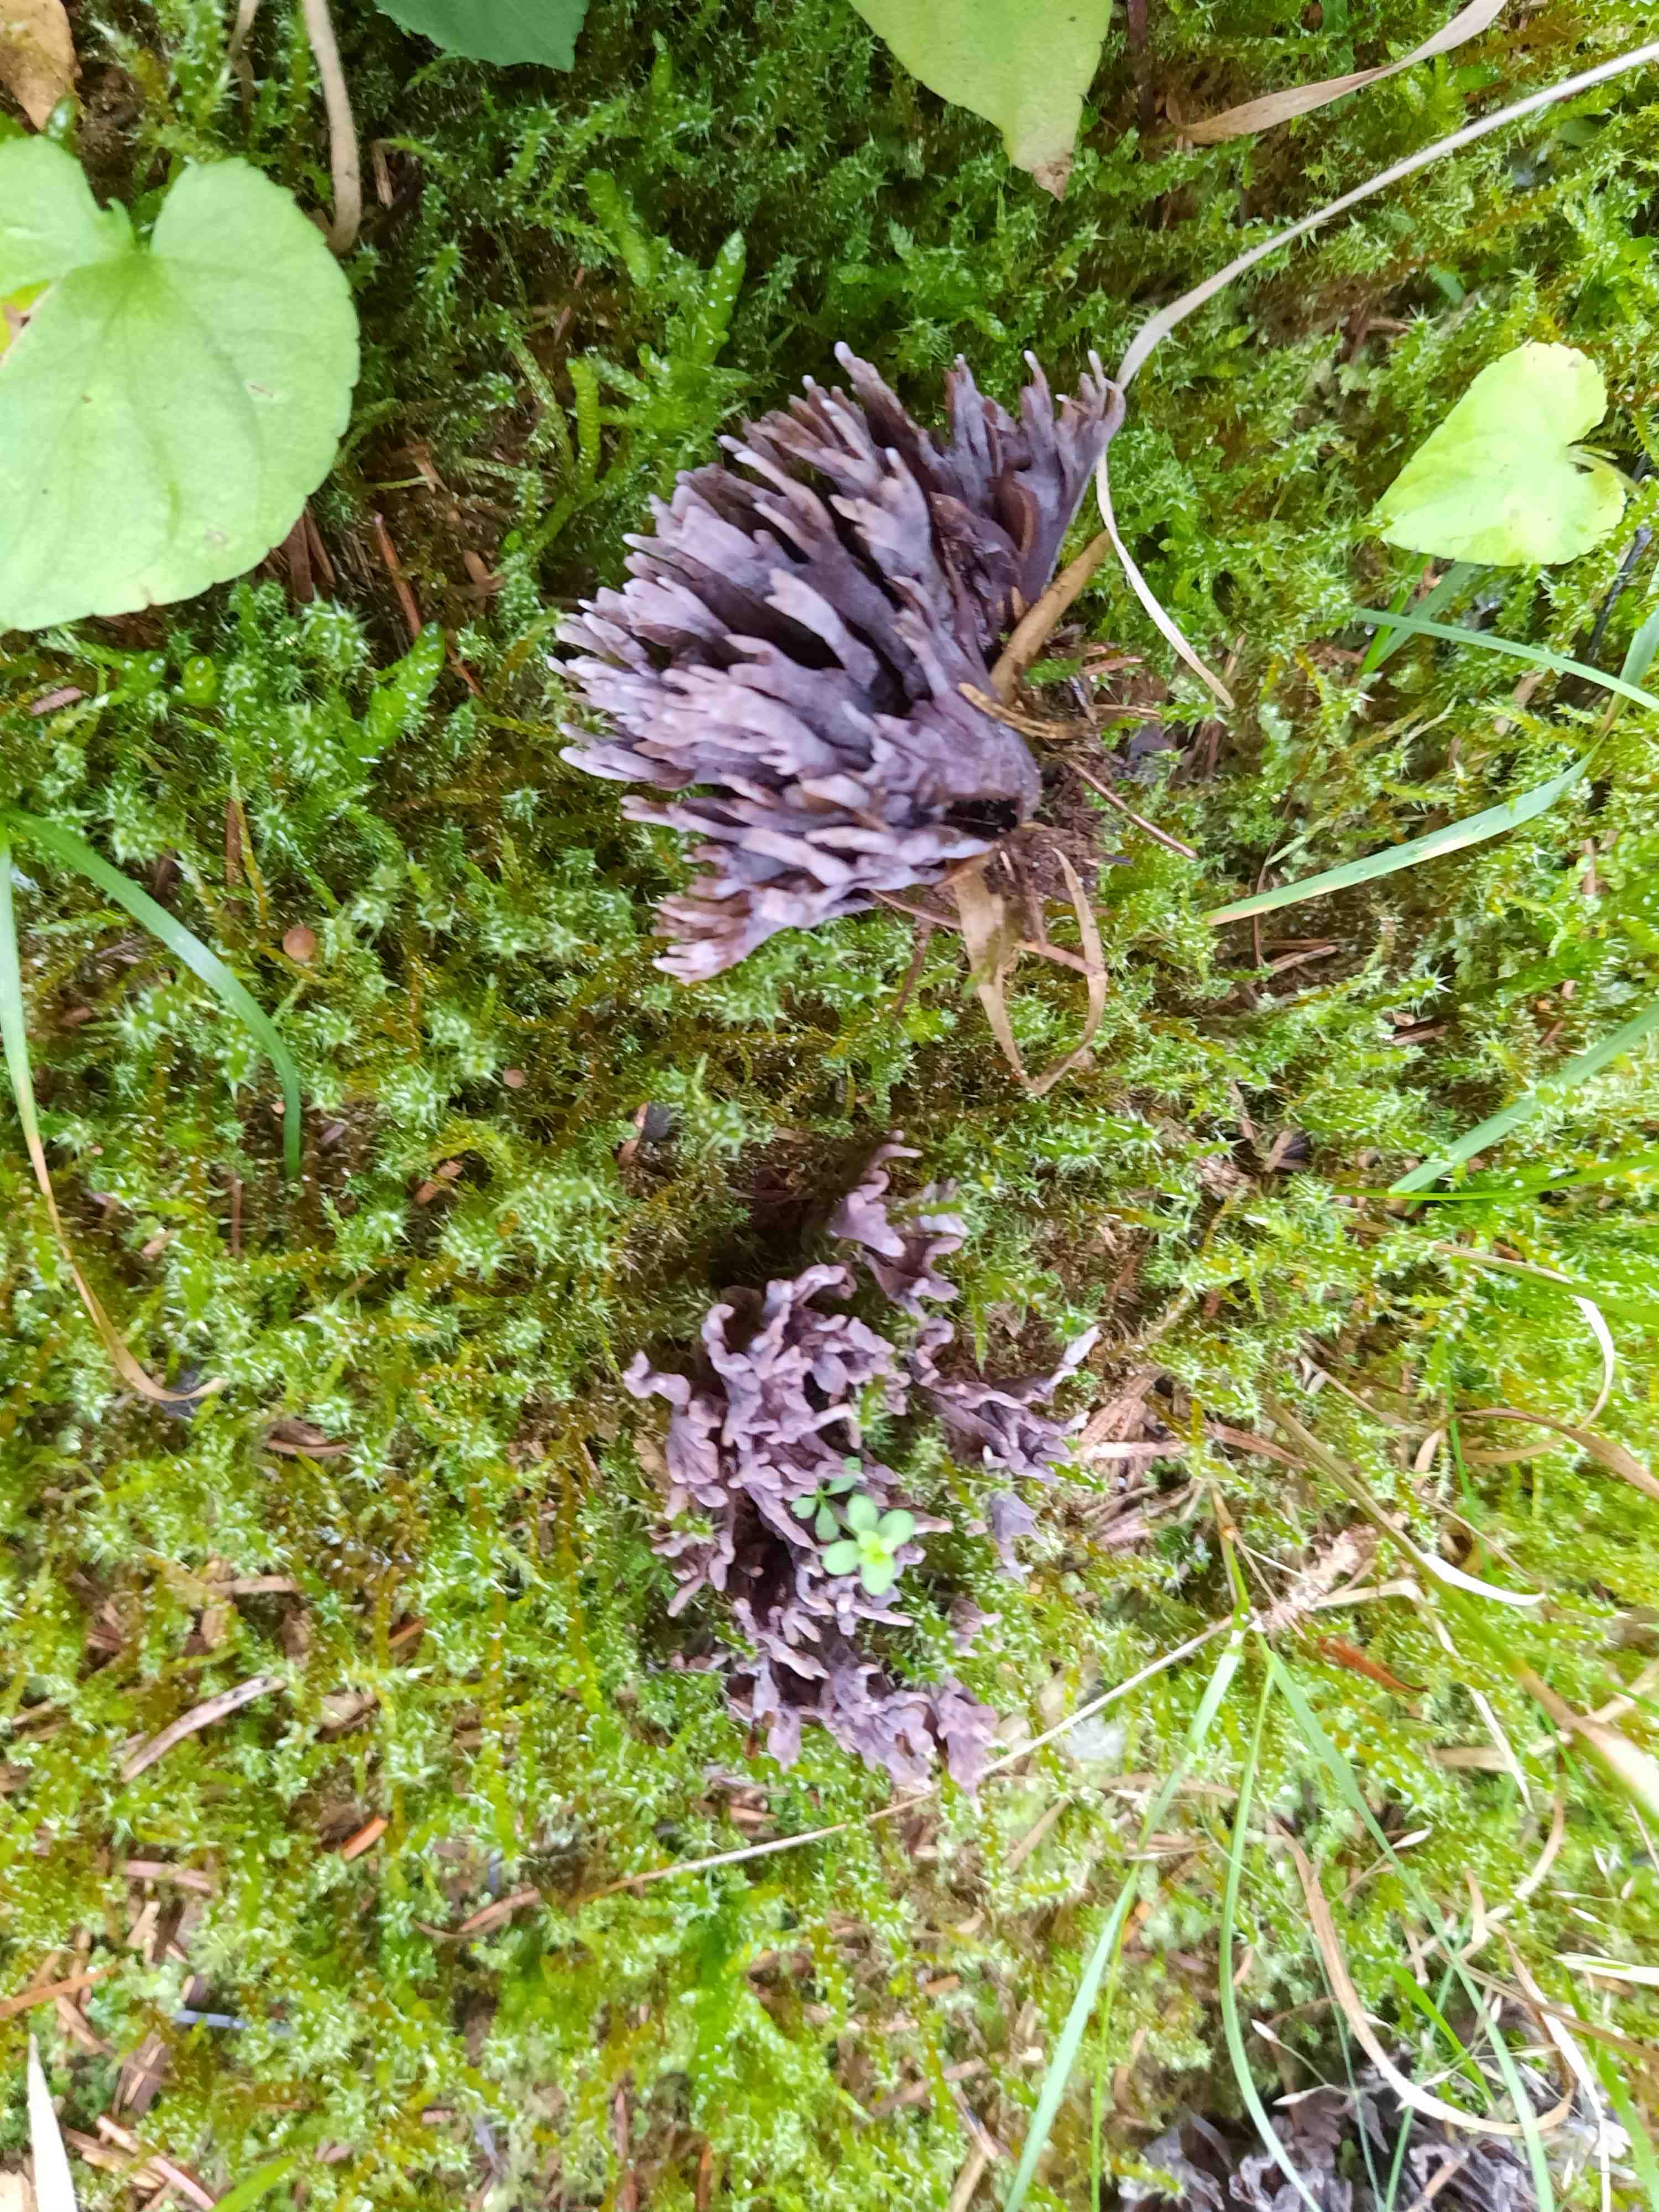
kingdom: Fungi
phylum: Basidiomycota
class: Agaricomycetes
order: Thelephorales
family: Thelephoraceae
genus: Thelephora
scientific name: Thelephora palmata
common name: grenet frynsesvamp
